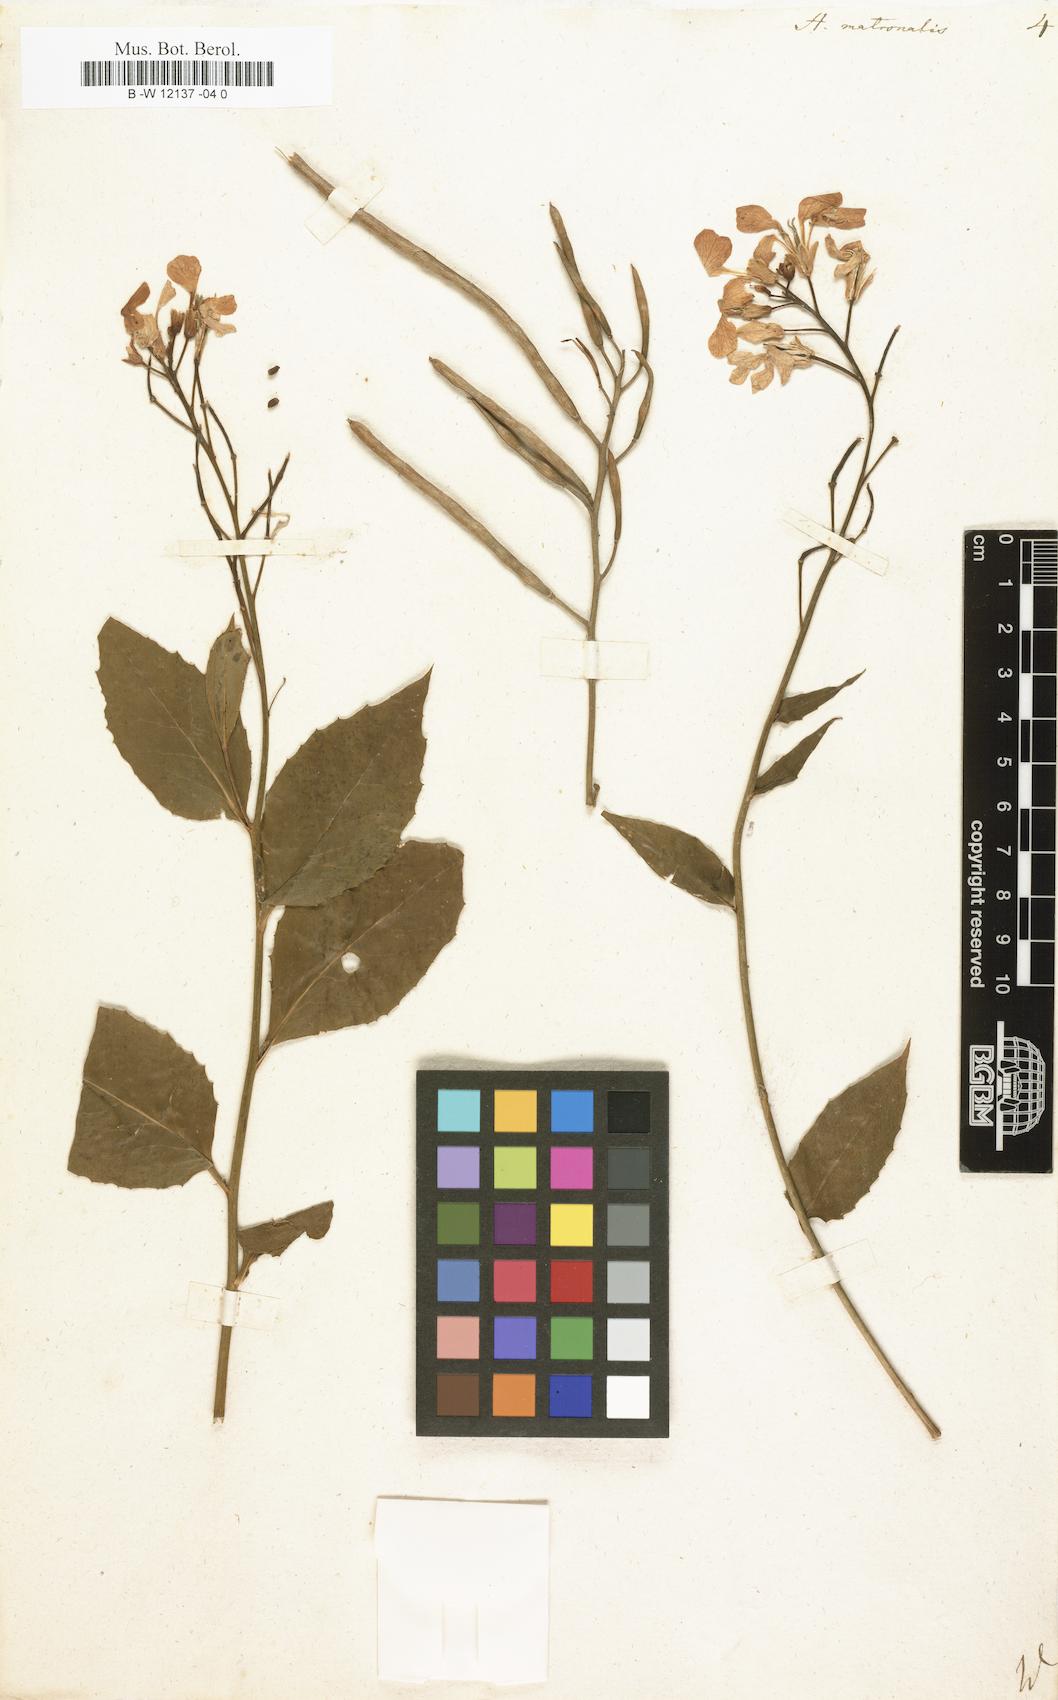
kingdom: Plantae
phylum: Tracheophyta
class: Magnoliopsida
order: Brassicales
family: Brassicaceae
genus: Hesperis
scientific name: Hesperis matronalis
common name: Dame's-violet
